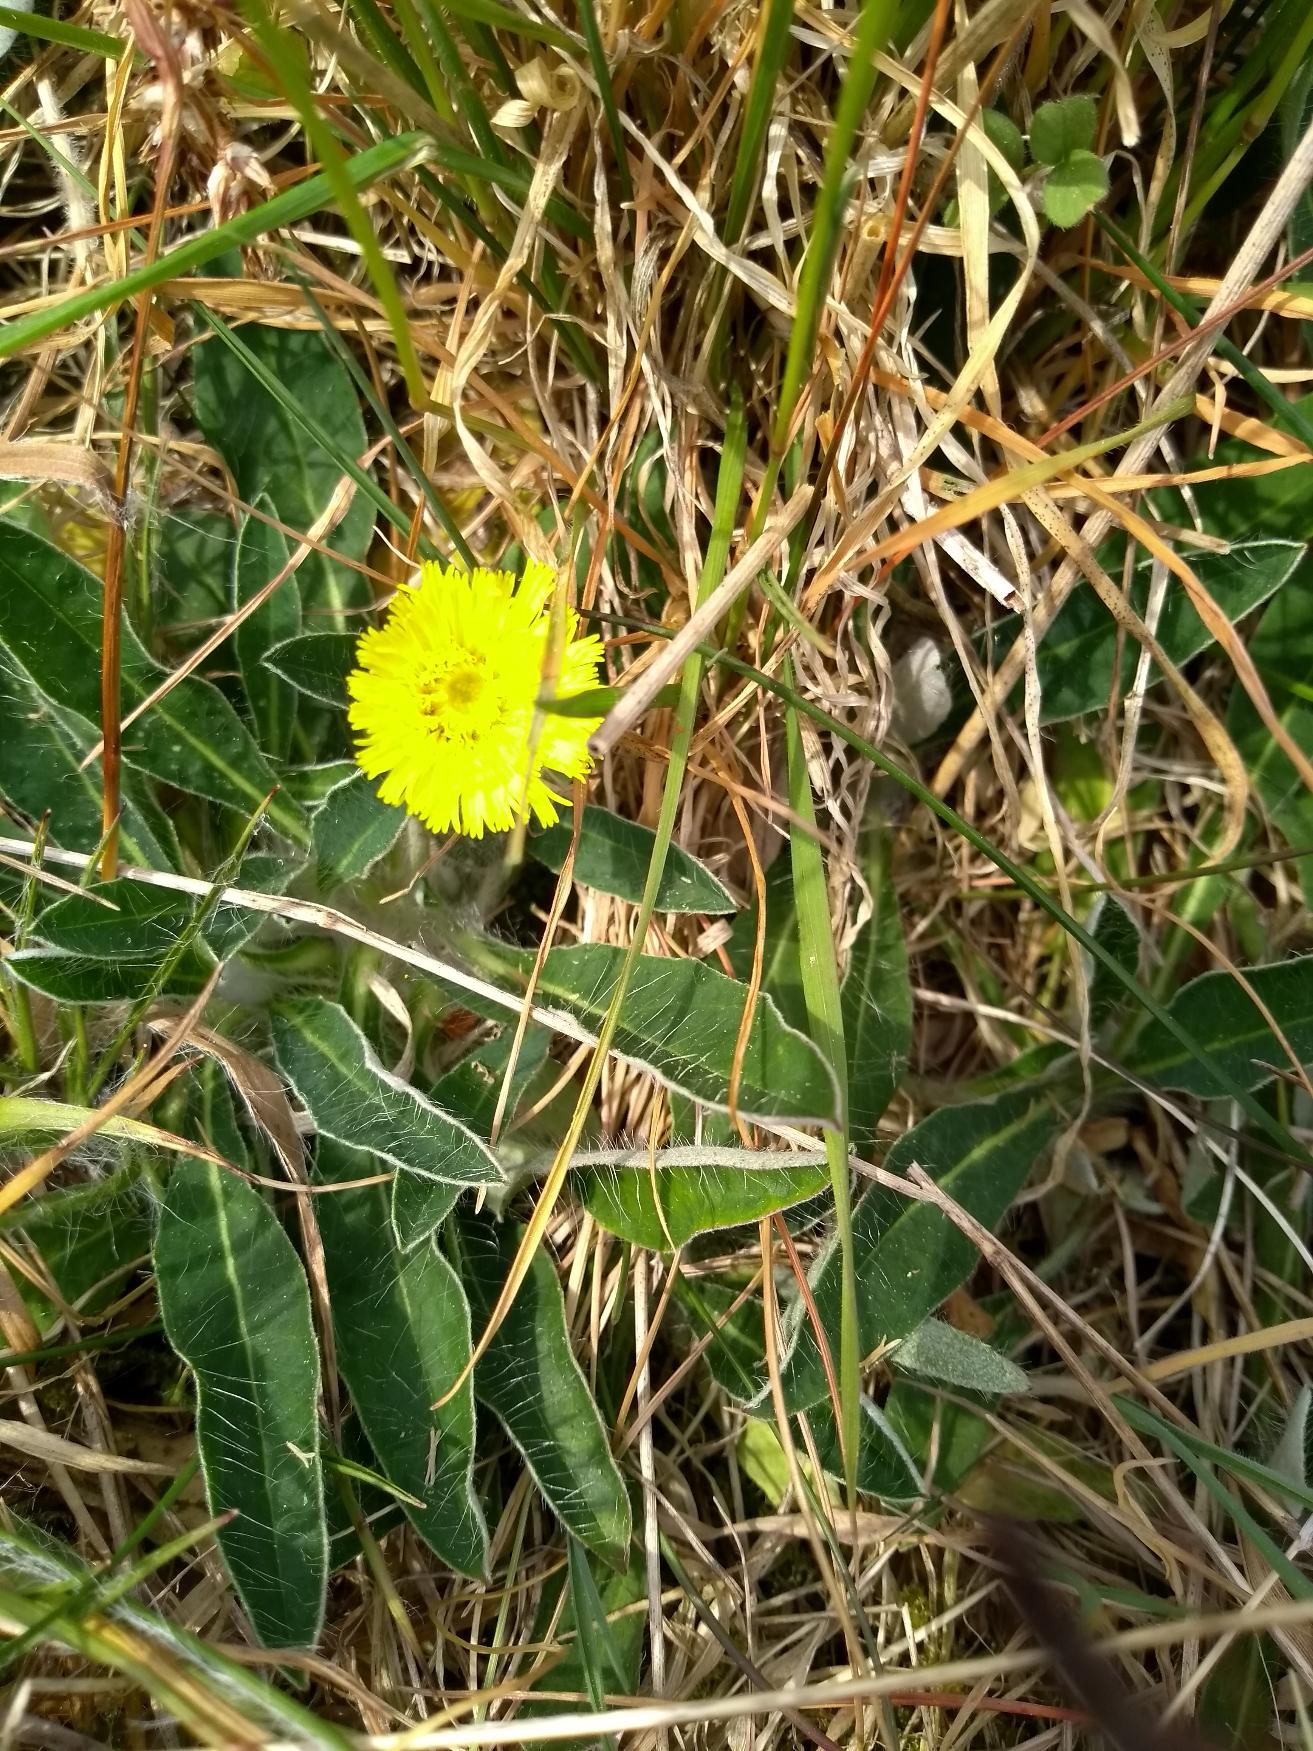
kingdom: Plantae
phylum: Tracheophyta
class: Magnoliopsida
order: Asterales
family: Asteraceae
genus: Pilosella
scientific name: Pilosella officinarum
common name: Håret høgeurt
